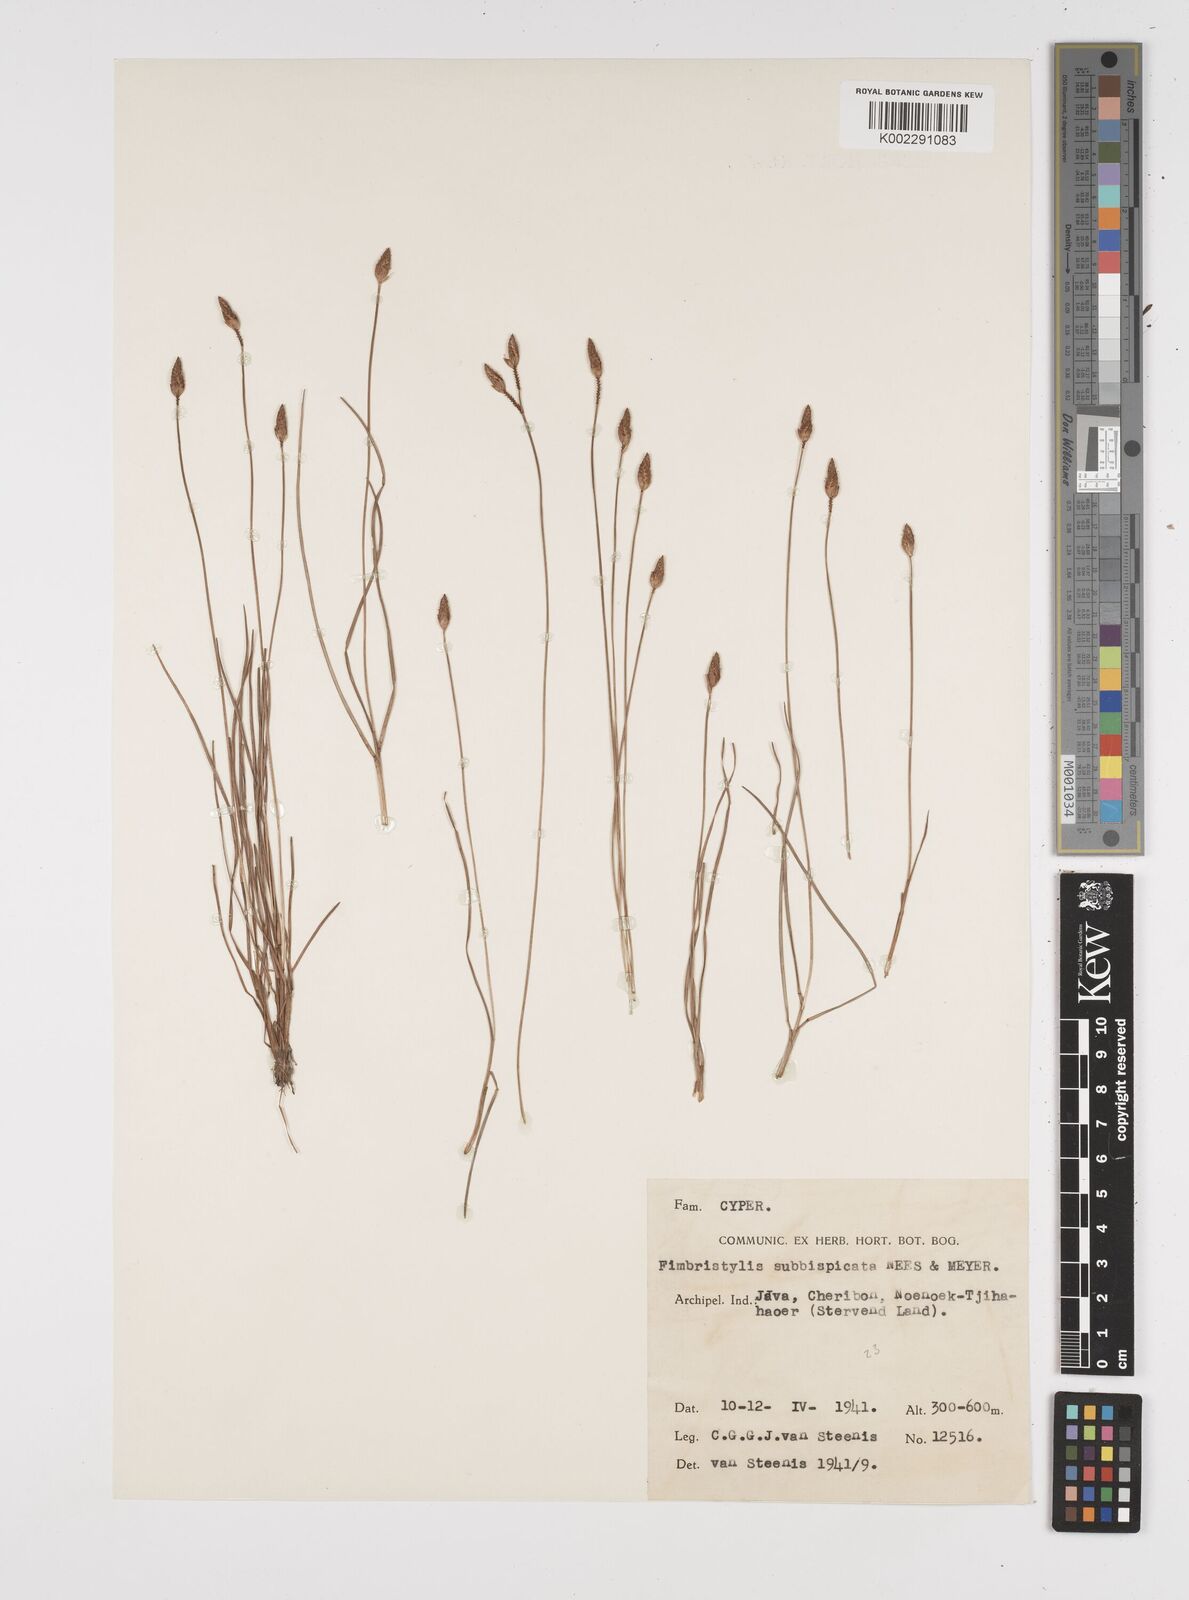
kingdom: Plantae
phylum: Tracheophyta
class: Liliopsida
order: Poales
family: Cyperaceae
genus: Fimbristylis
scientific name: Fimbristylis tristachya
